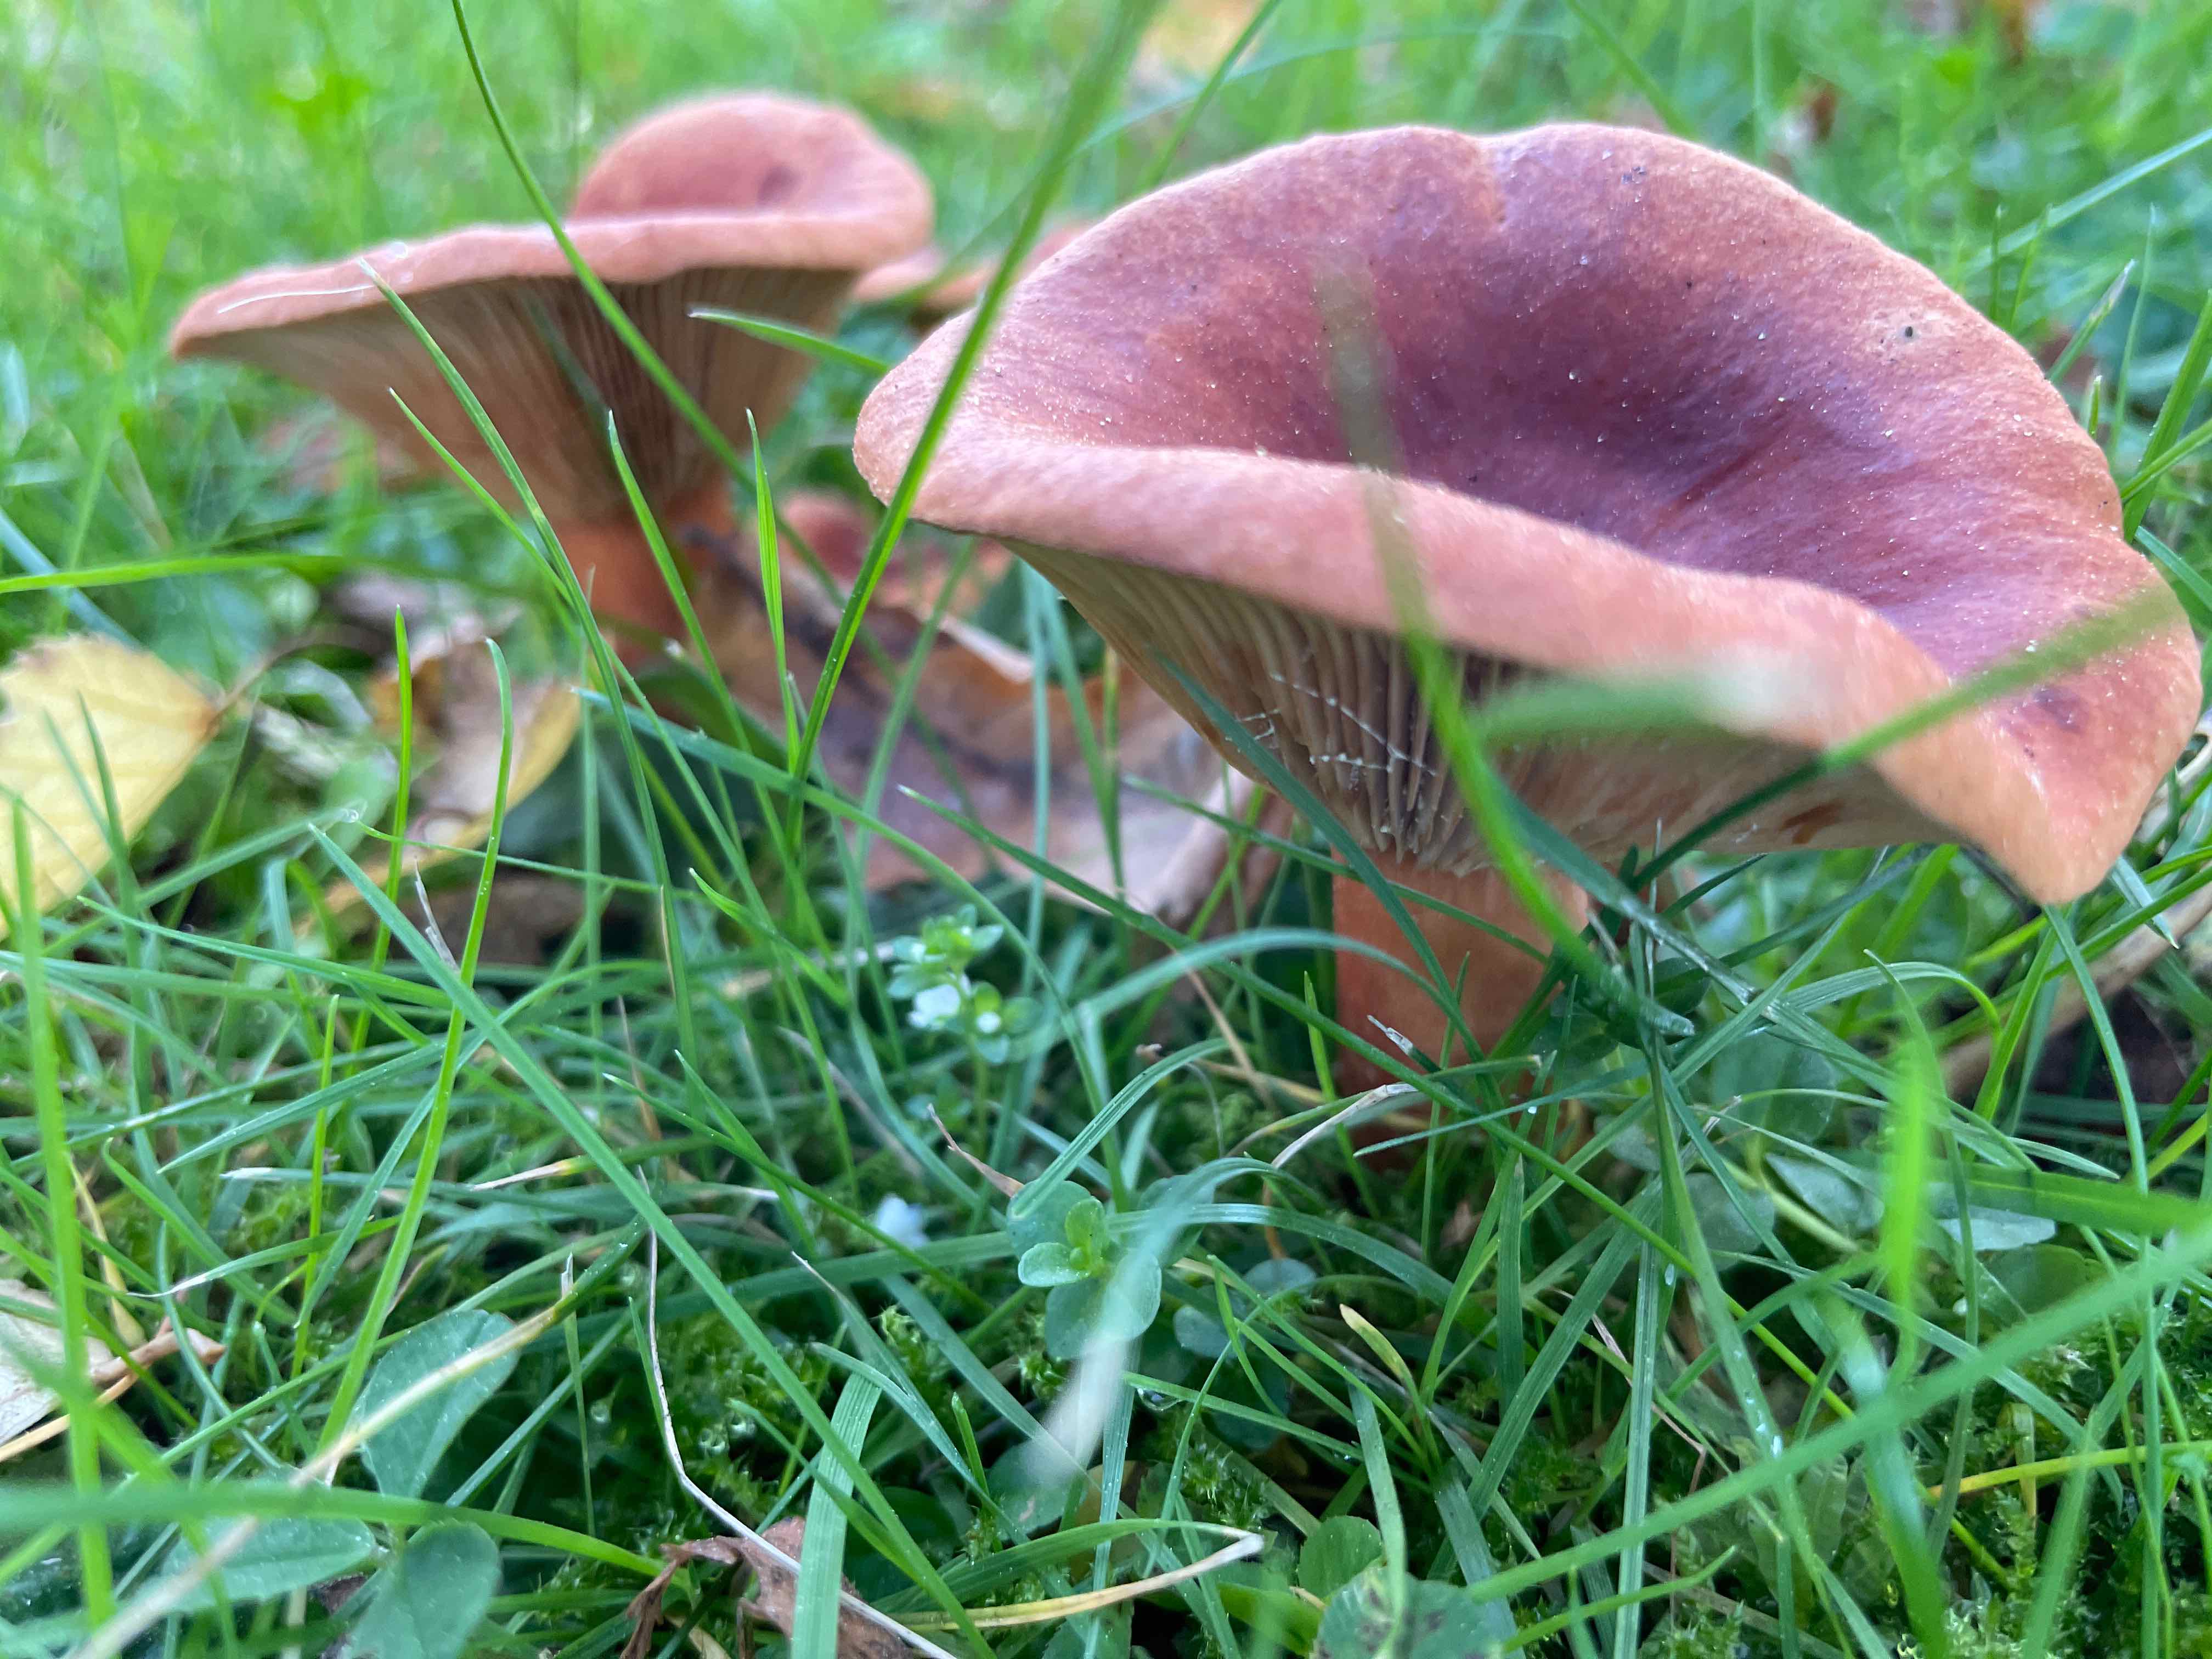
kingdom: Fungi
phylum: Basidiomycota
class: Agaricomycetes
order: Russulales
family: Russulaceae
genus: Lactarius
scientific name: Lactarius
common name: mælkehat
